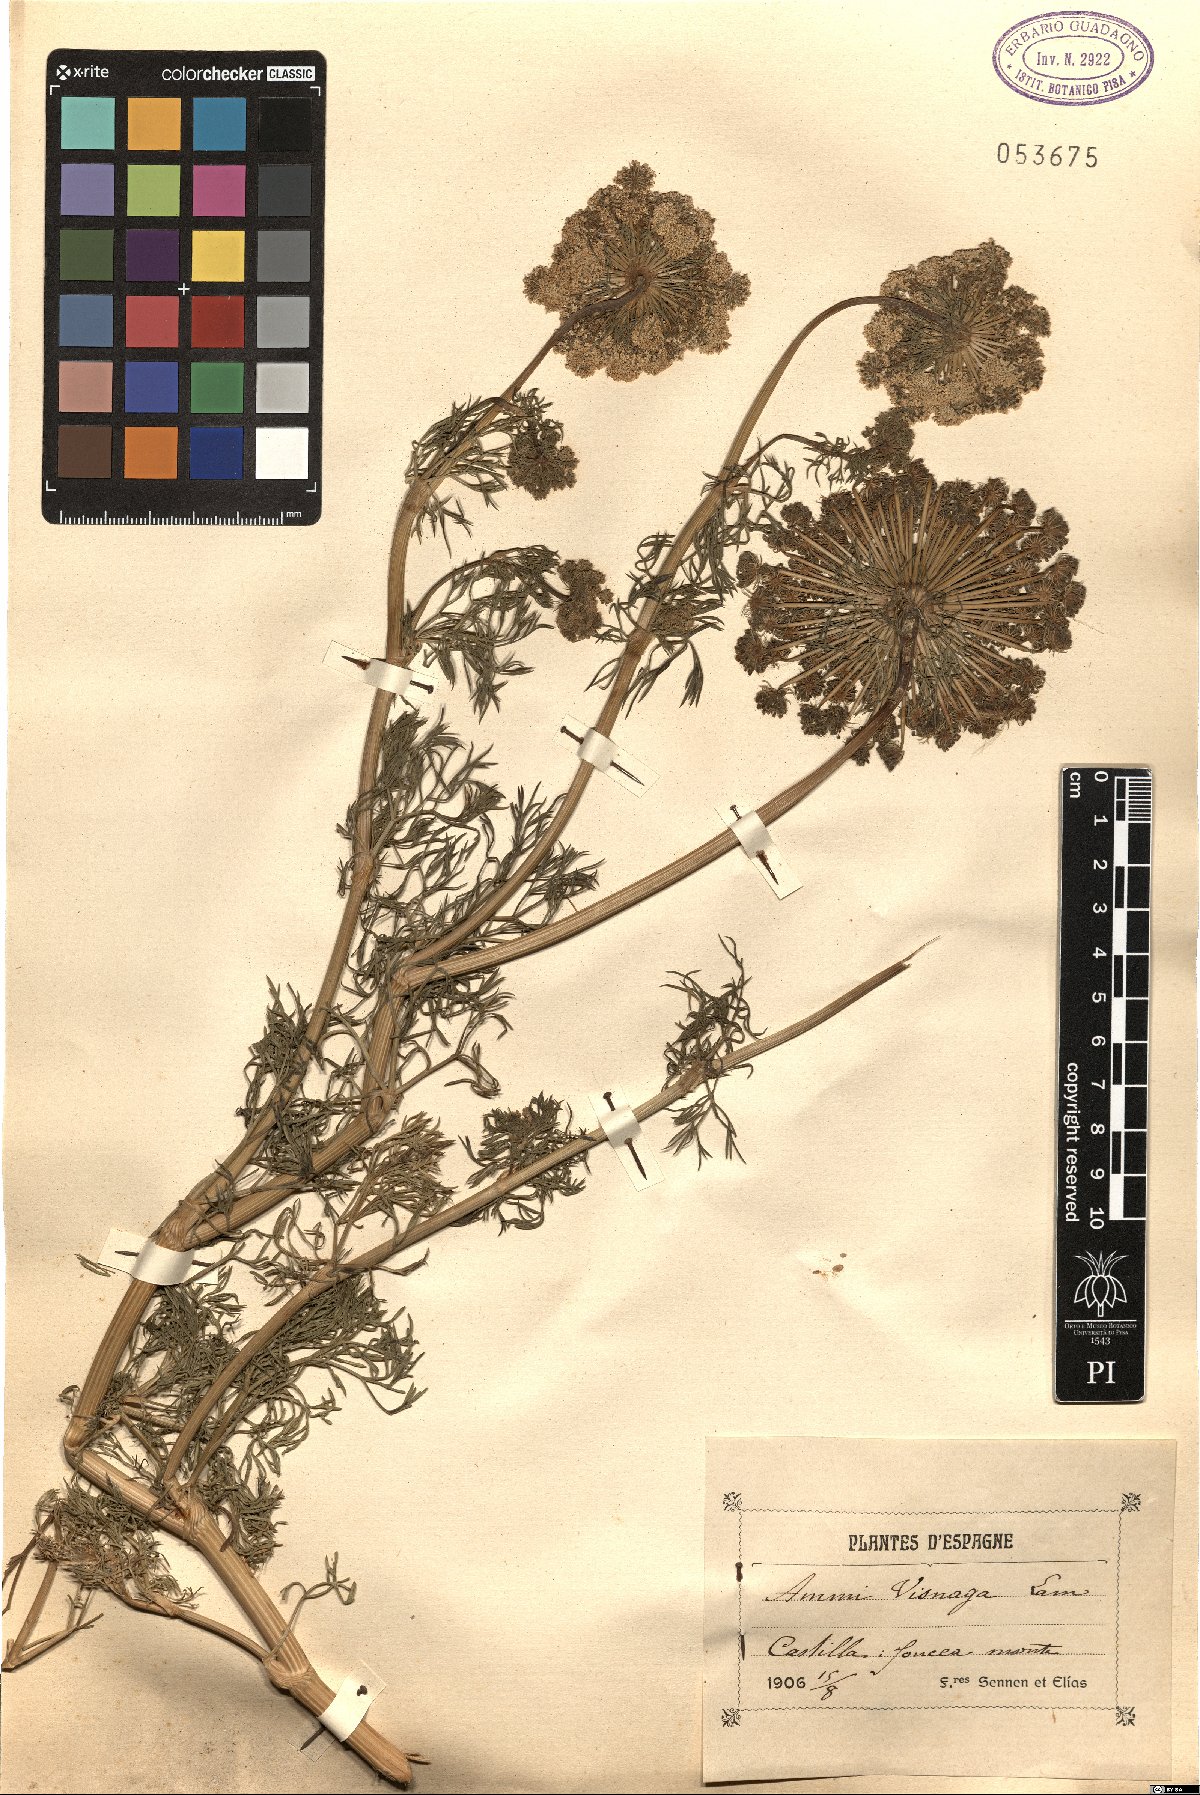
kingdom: Plantae
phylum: Tracheophyta
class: Magnoliopsida
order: Apiales
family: Apiaceae
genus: Visnaga
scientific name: Visnaga daucoides
